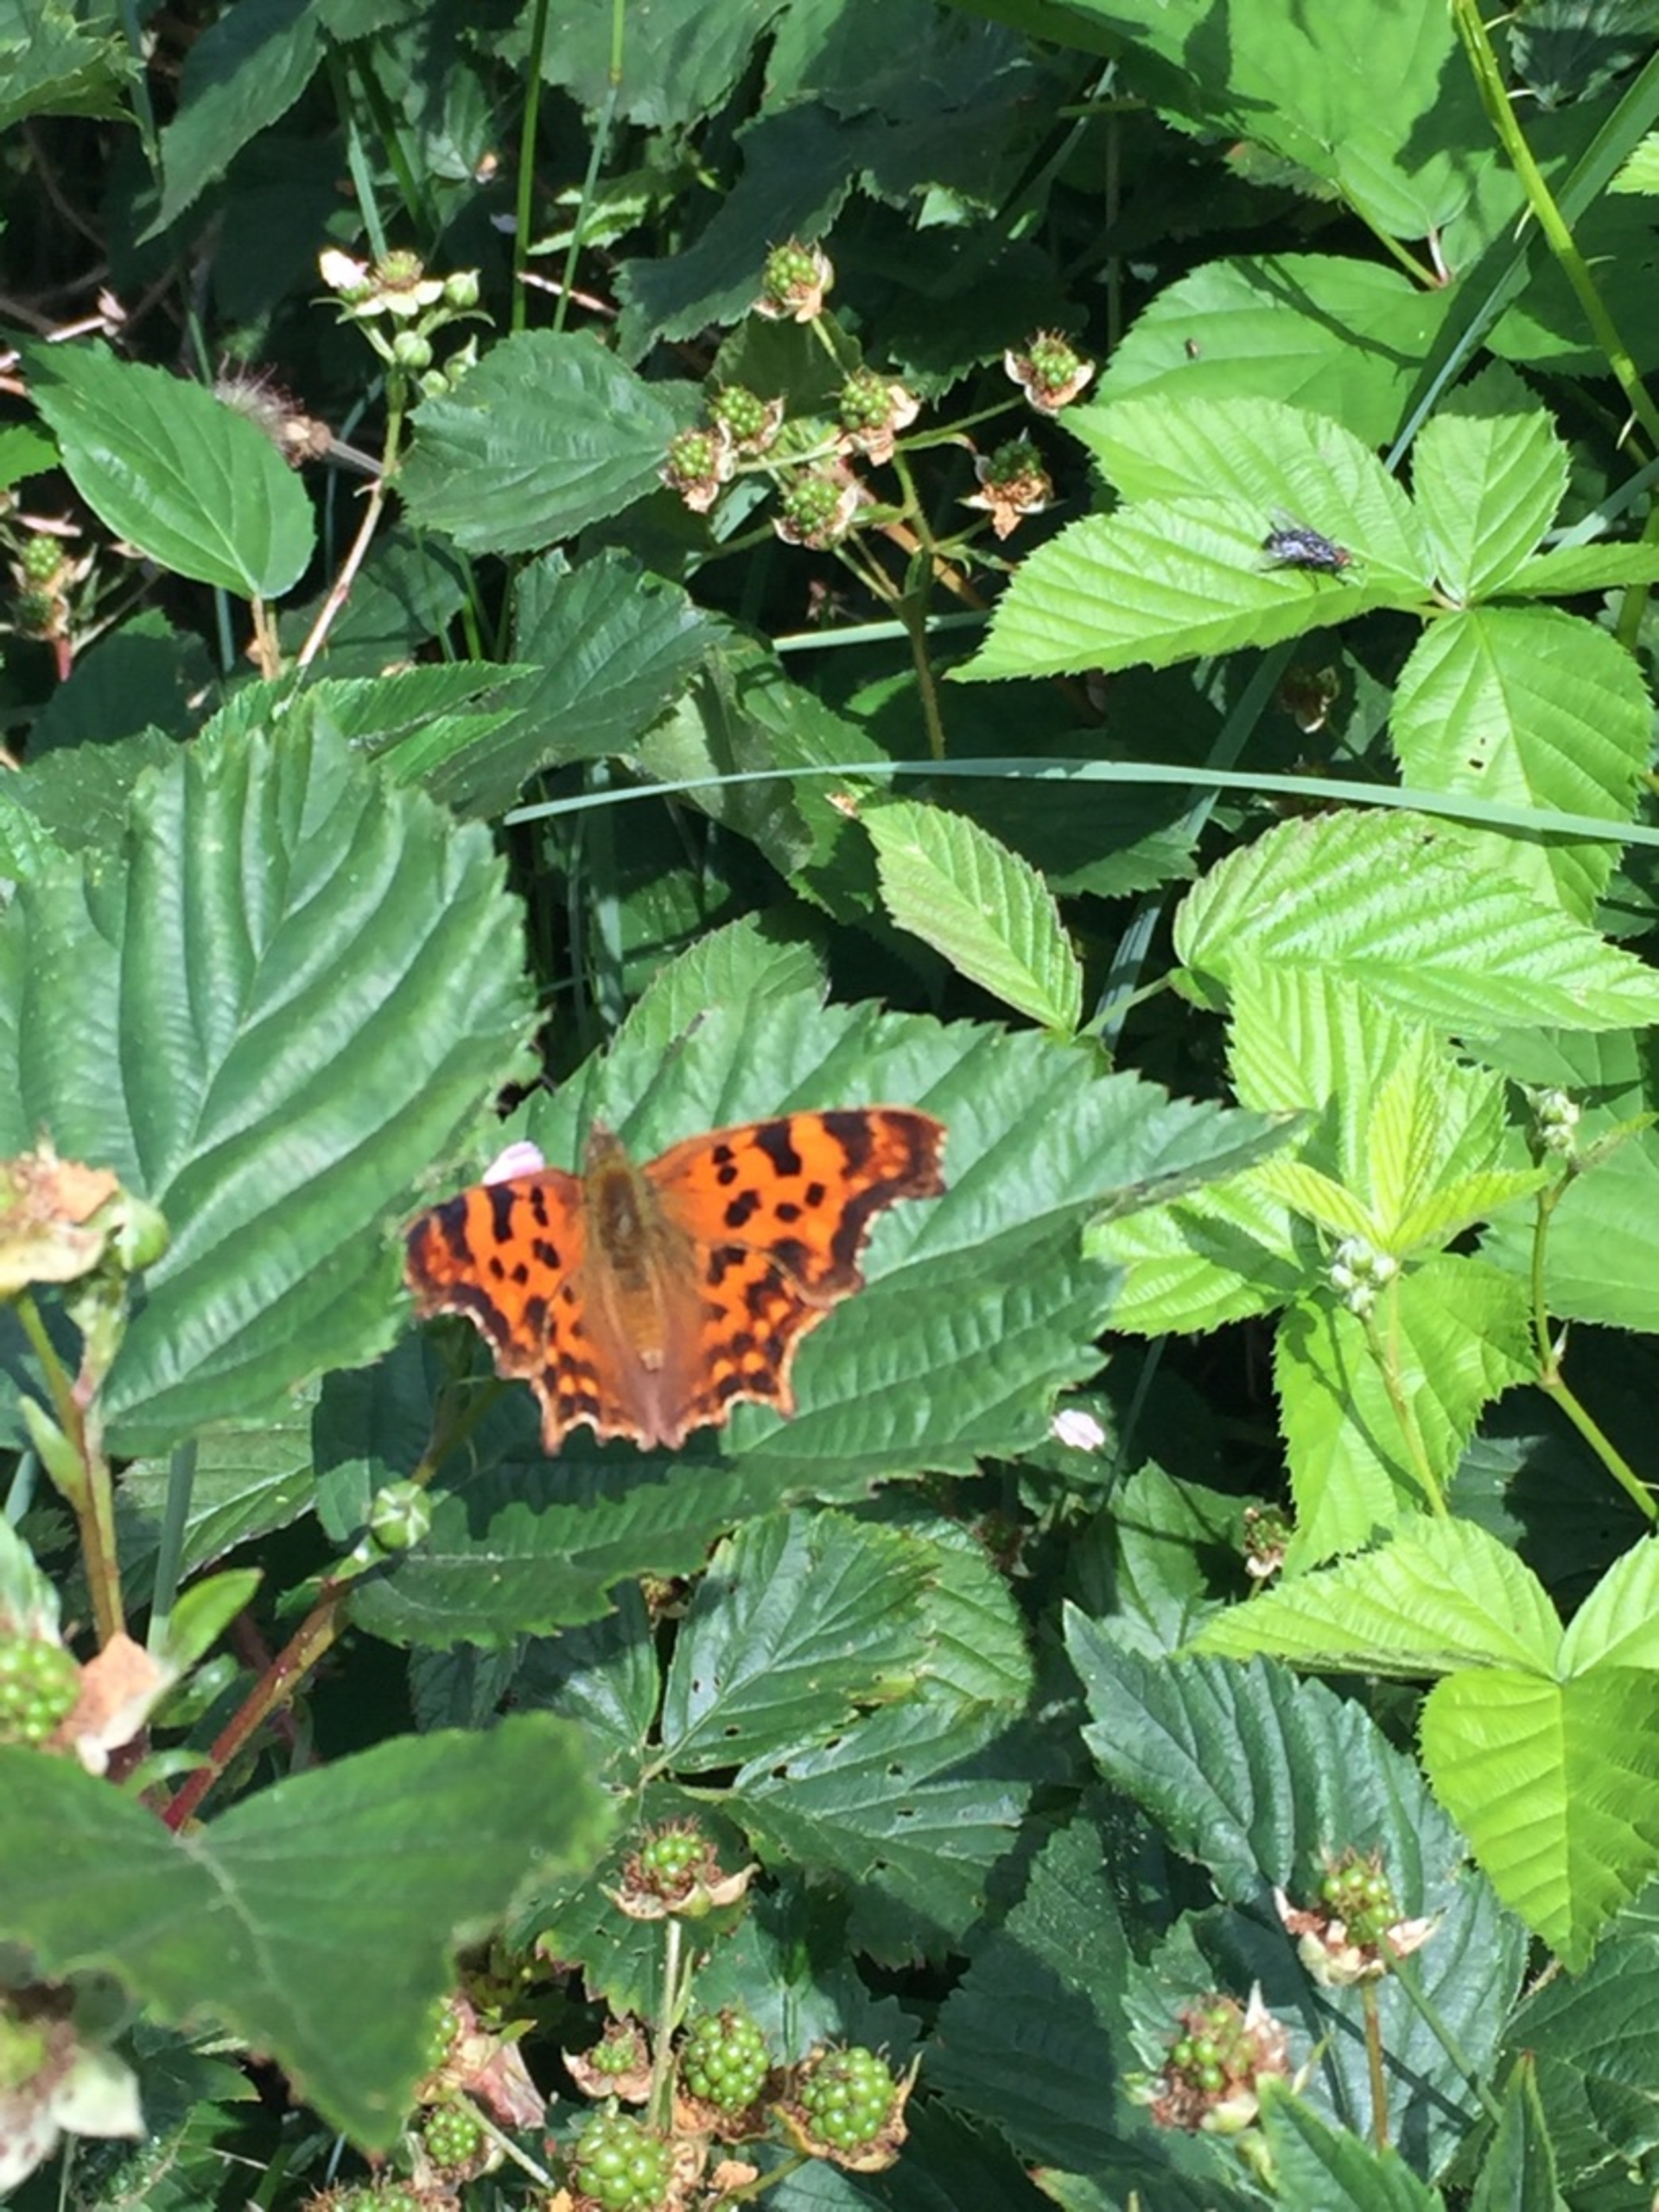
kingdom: Animalia
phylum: Arthropoda
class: Insecta
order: Lepidoptera
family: Nymphalidae
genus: Polygonia
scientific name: Polygonia c-album
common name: Det hvide C
